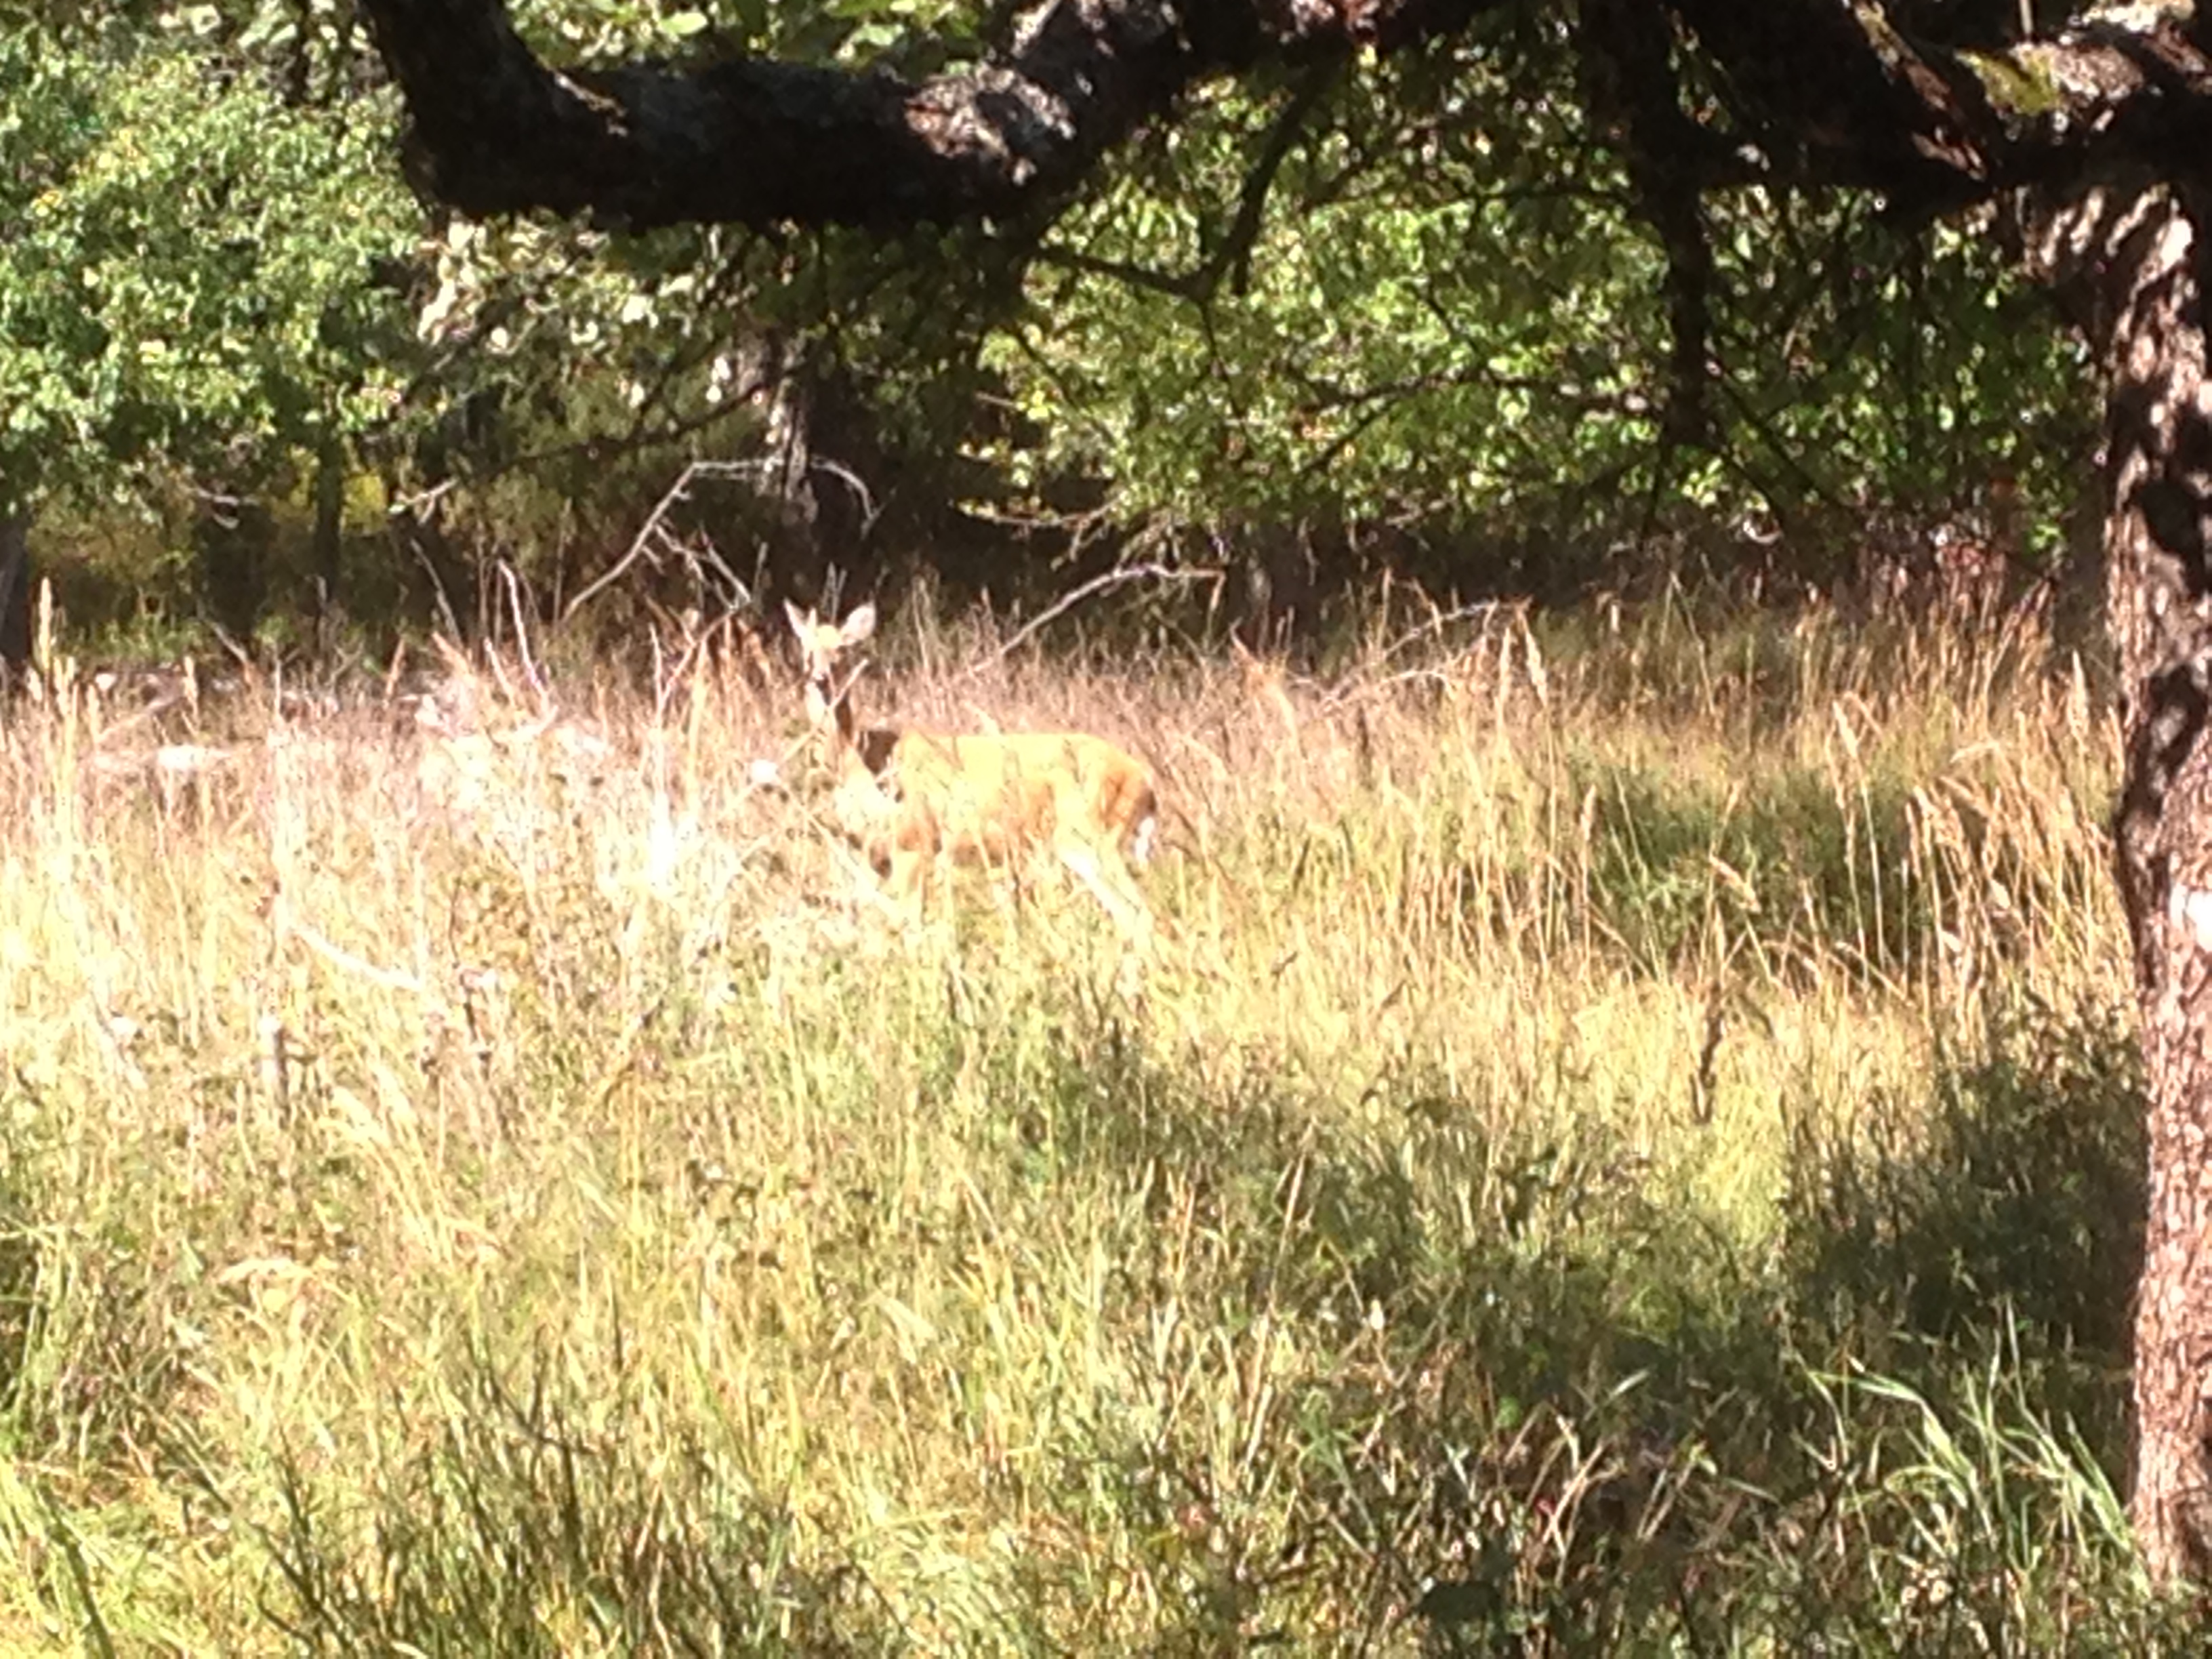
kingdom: Animalia
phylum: Chordata
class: Mammalia
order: Artiodactyla
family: Cervidae
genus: Odocoileus
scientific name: Odocoileus virginianus
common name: White-tailed deer
